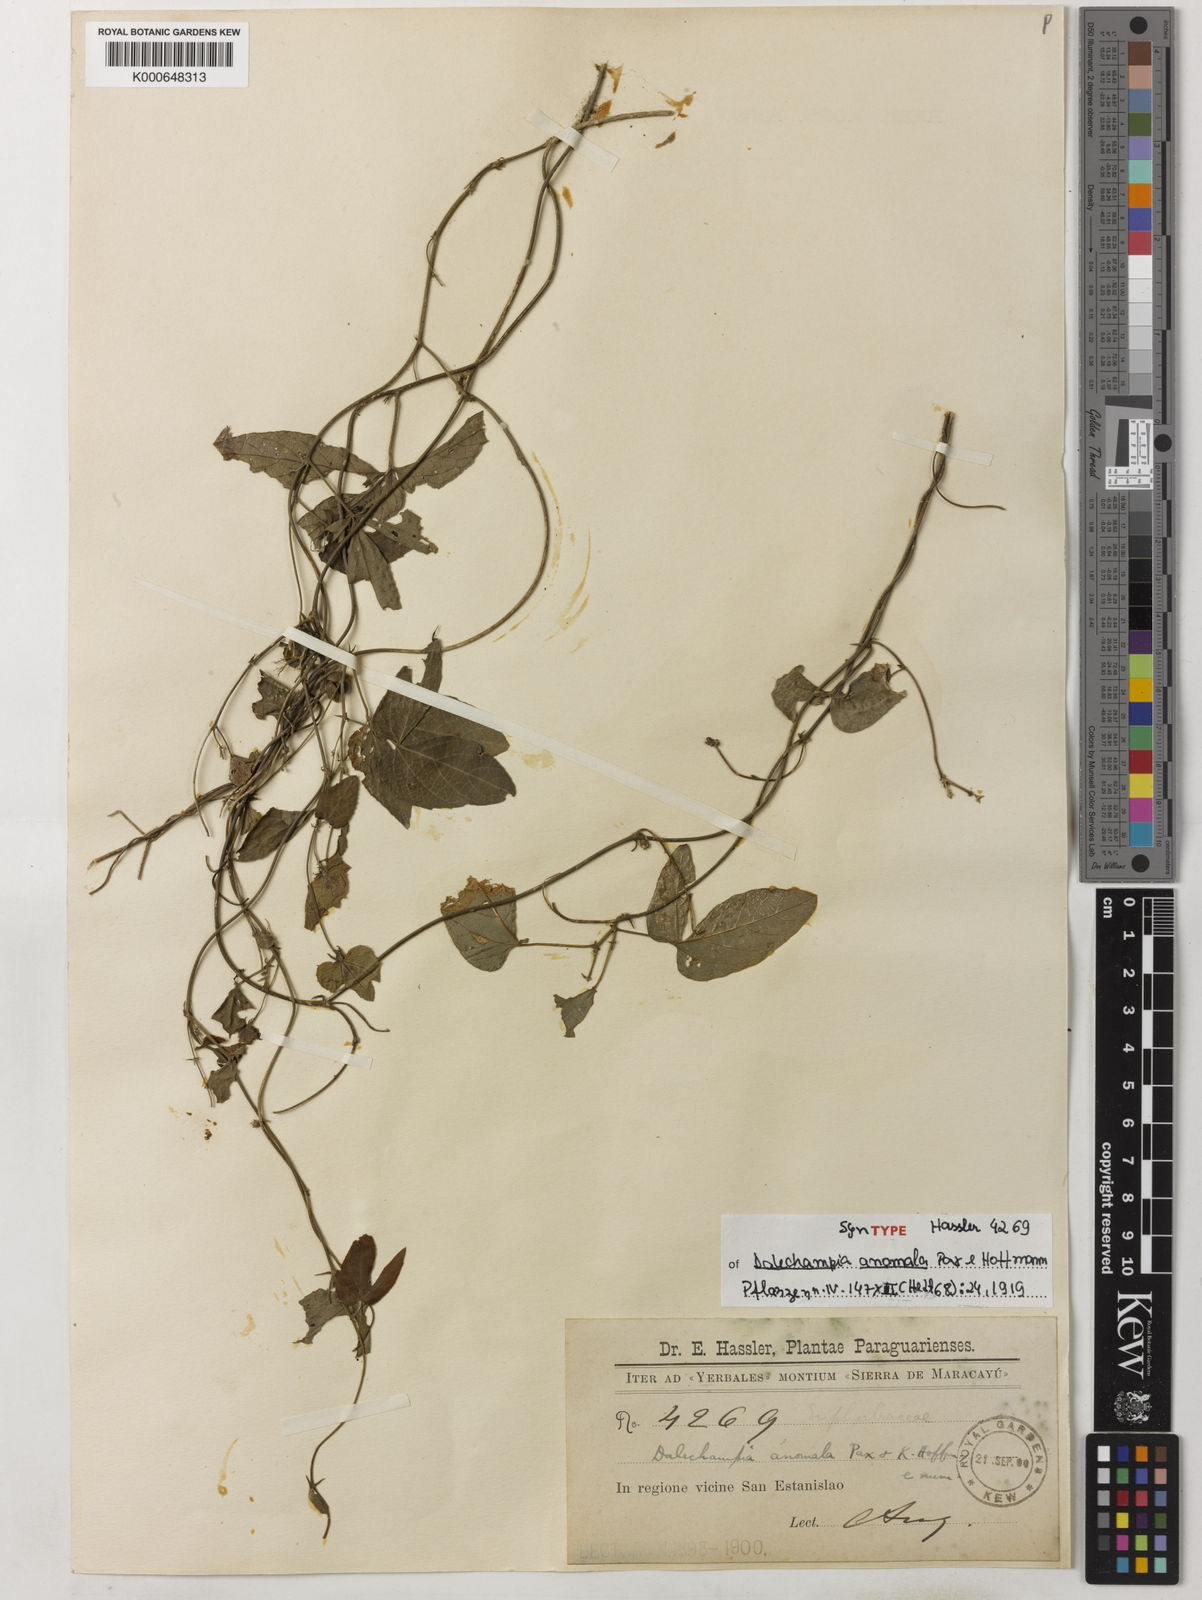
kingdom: Plantae
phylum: Tracheophyta
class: Magnoliopsida
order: Malpighiales
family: Euphorbiaceae
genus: Dalechampia
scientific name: Dalechampia anomala
